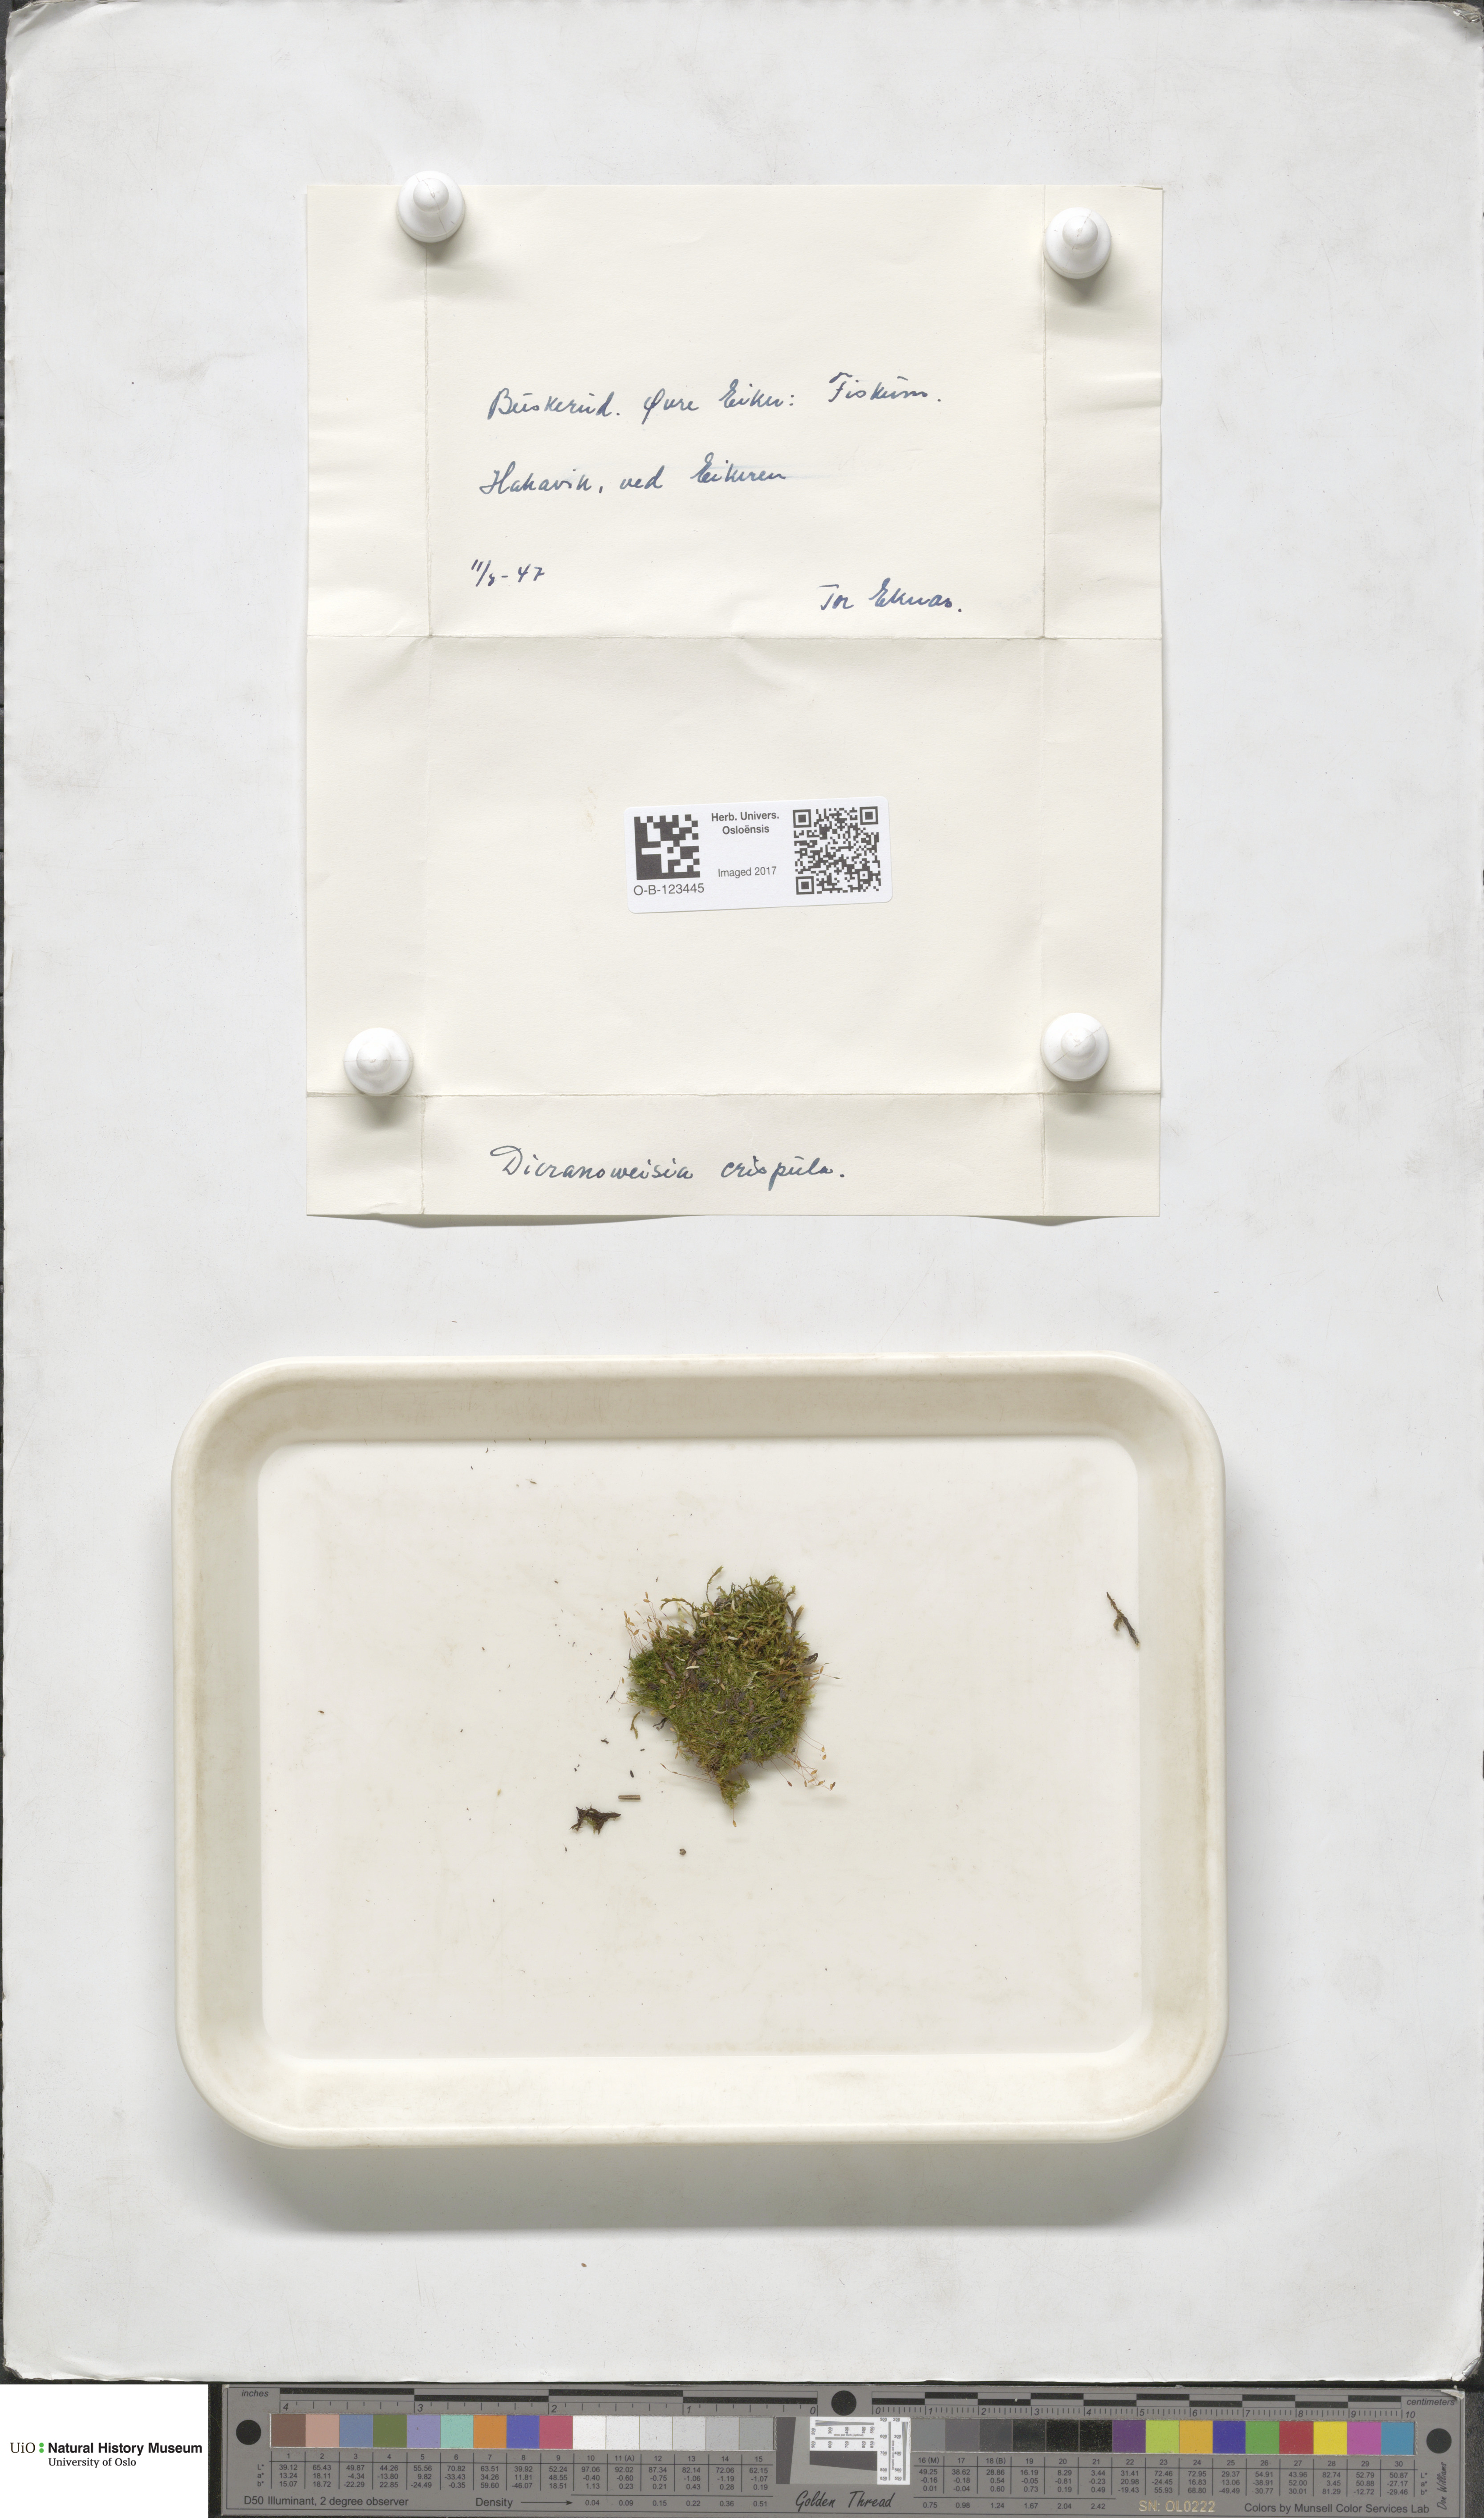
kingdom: Plantae
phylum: Bryophyta
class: Bryopsida
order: Scouleriales
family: Hymenolomataceae
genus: Hymenoloma
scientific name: Hymenoloma crispulum
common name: Mountain pincushion
